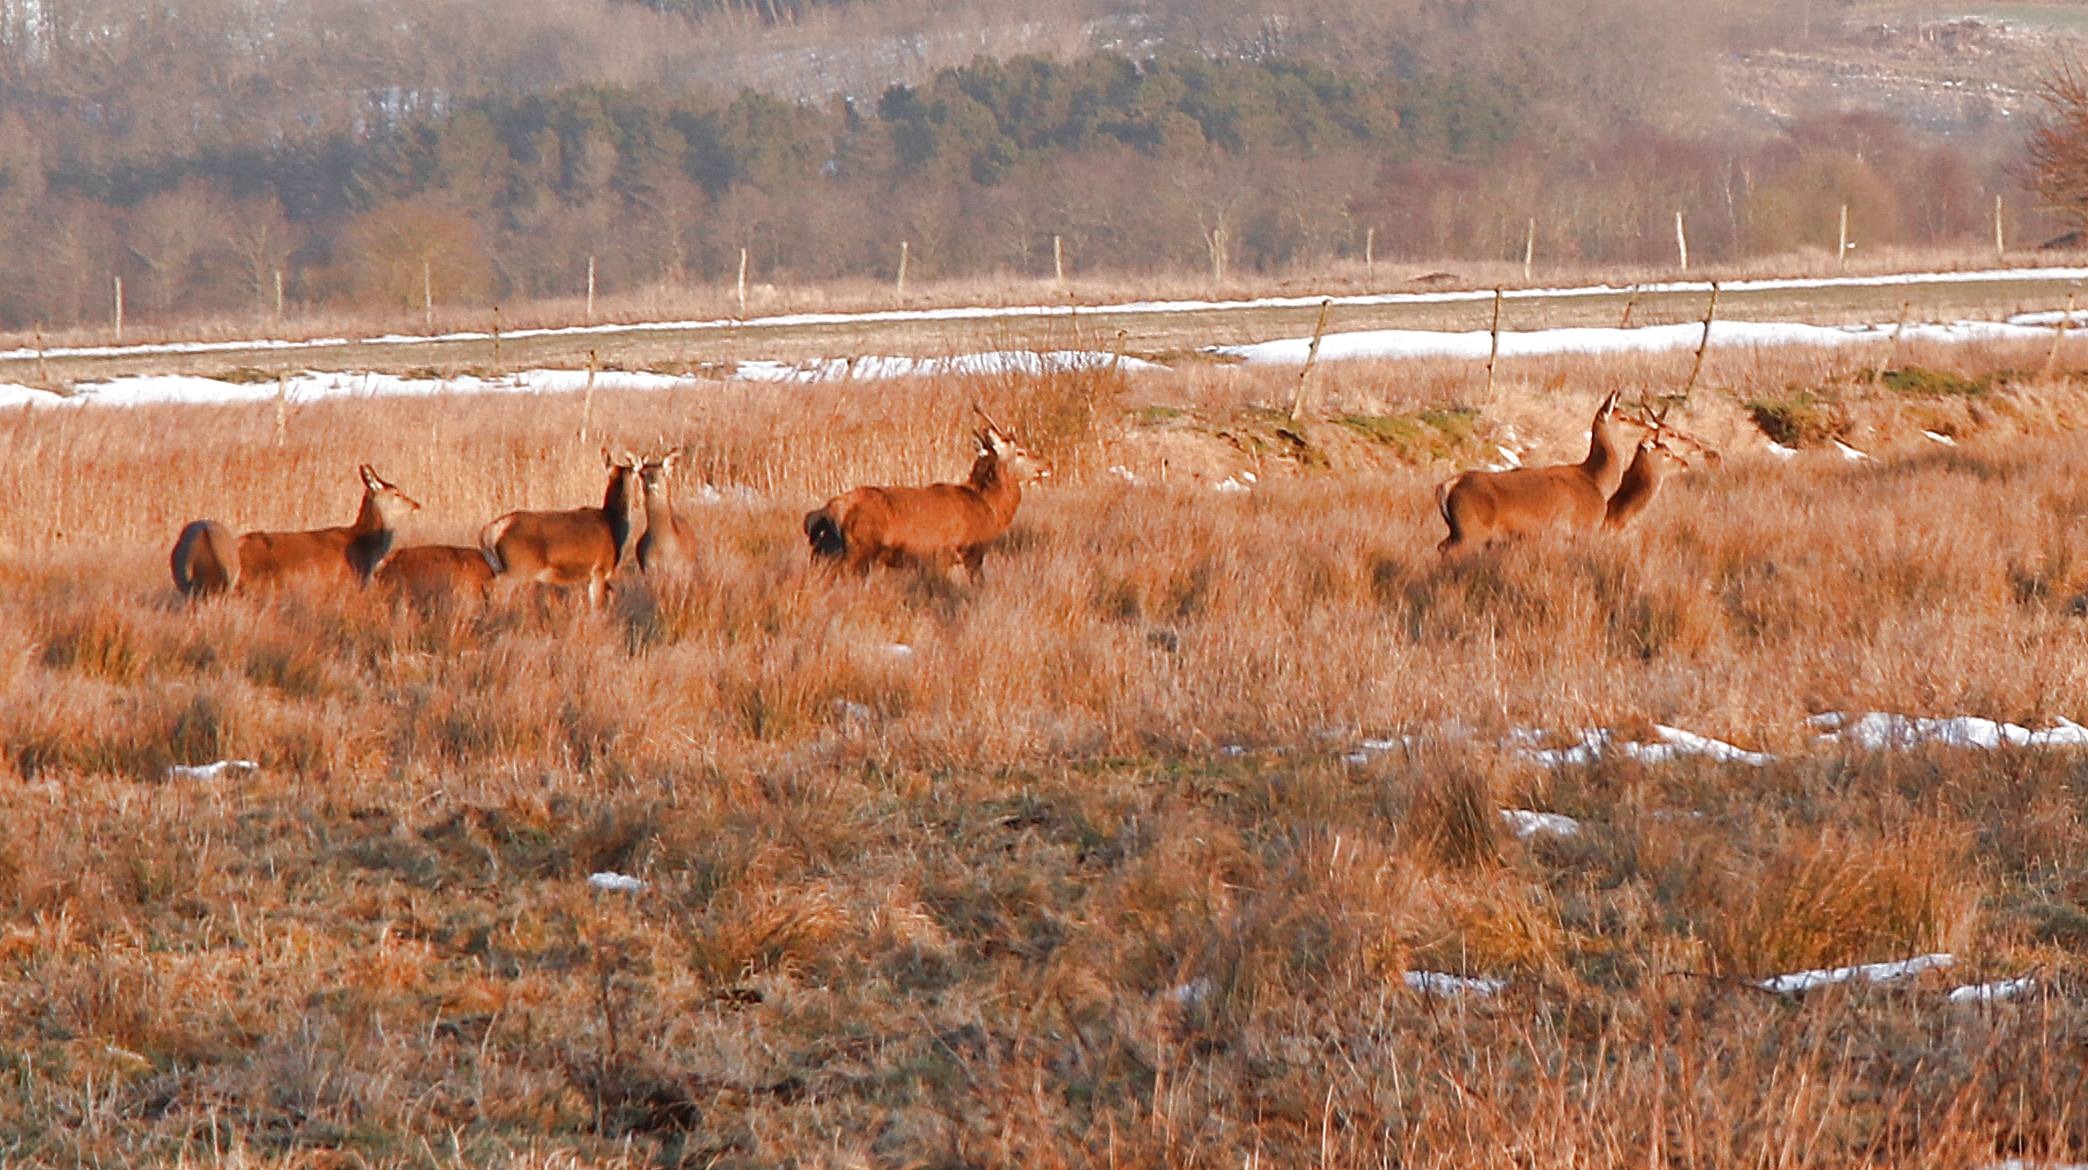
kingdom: Animalia
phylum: Chordata
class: Mammalia
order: Artiodactyla
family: Cervidae
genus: Cervus
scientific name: Cervus elaphus
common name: Krondyr
